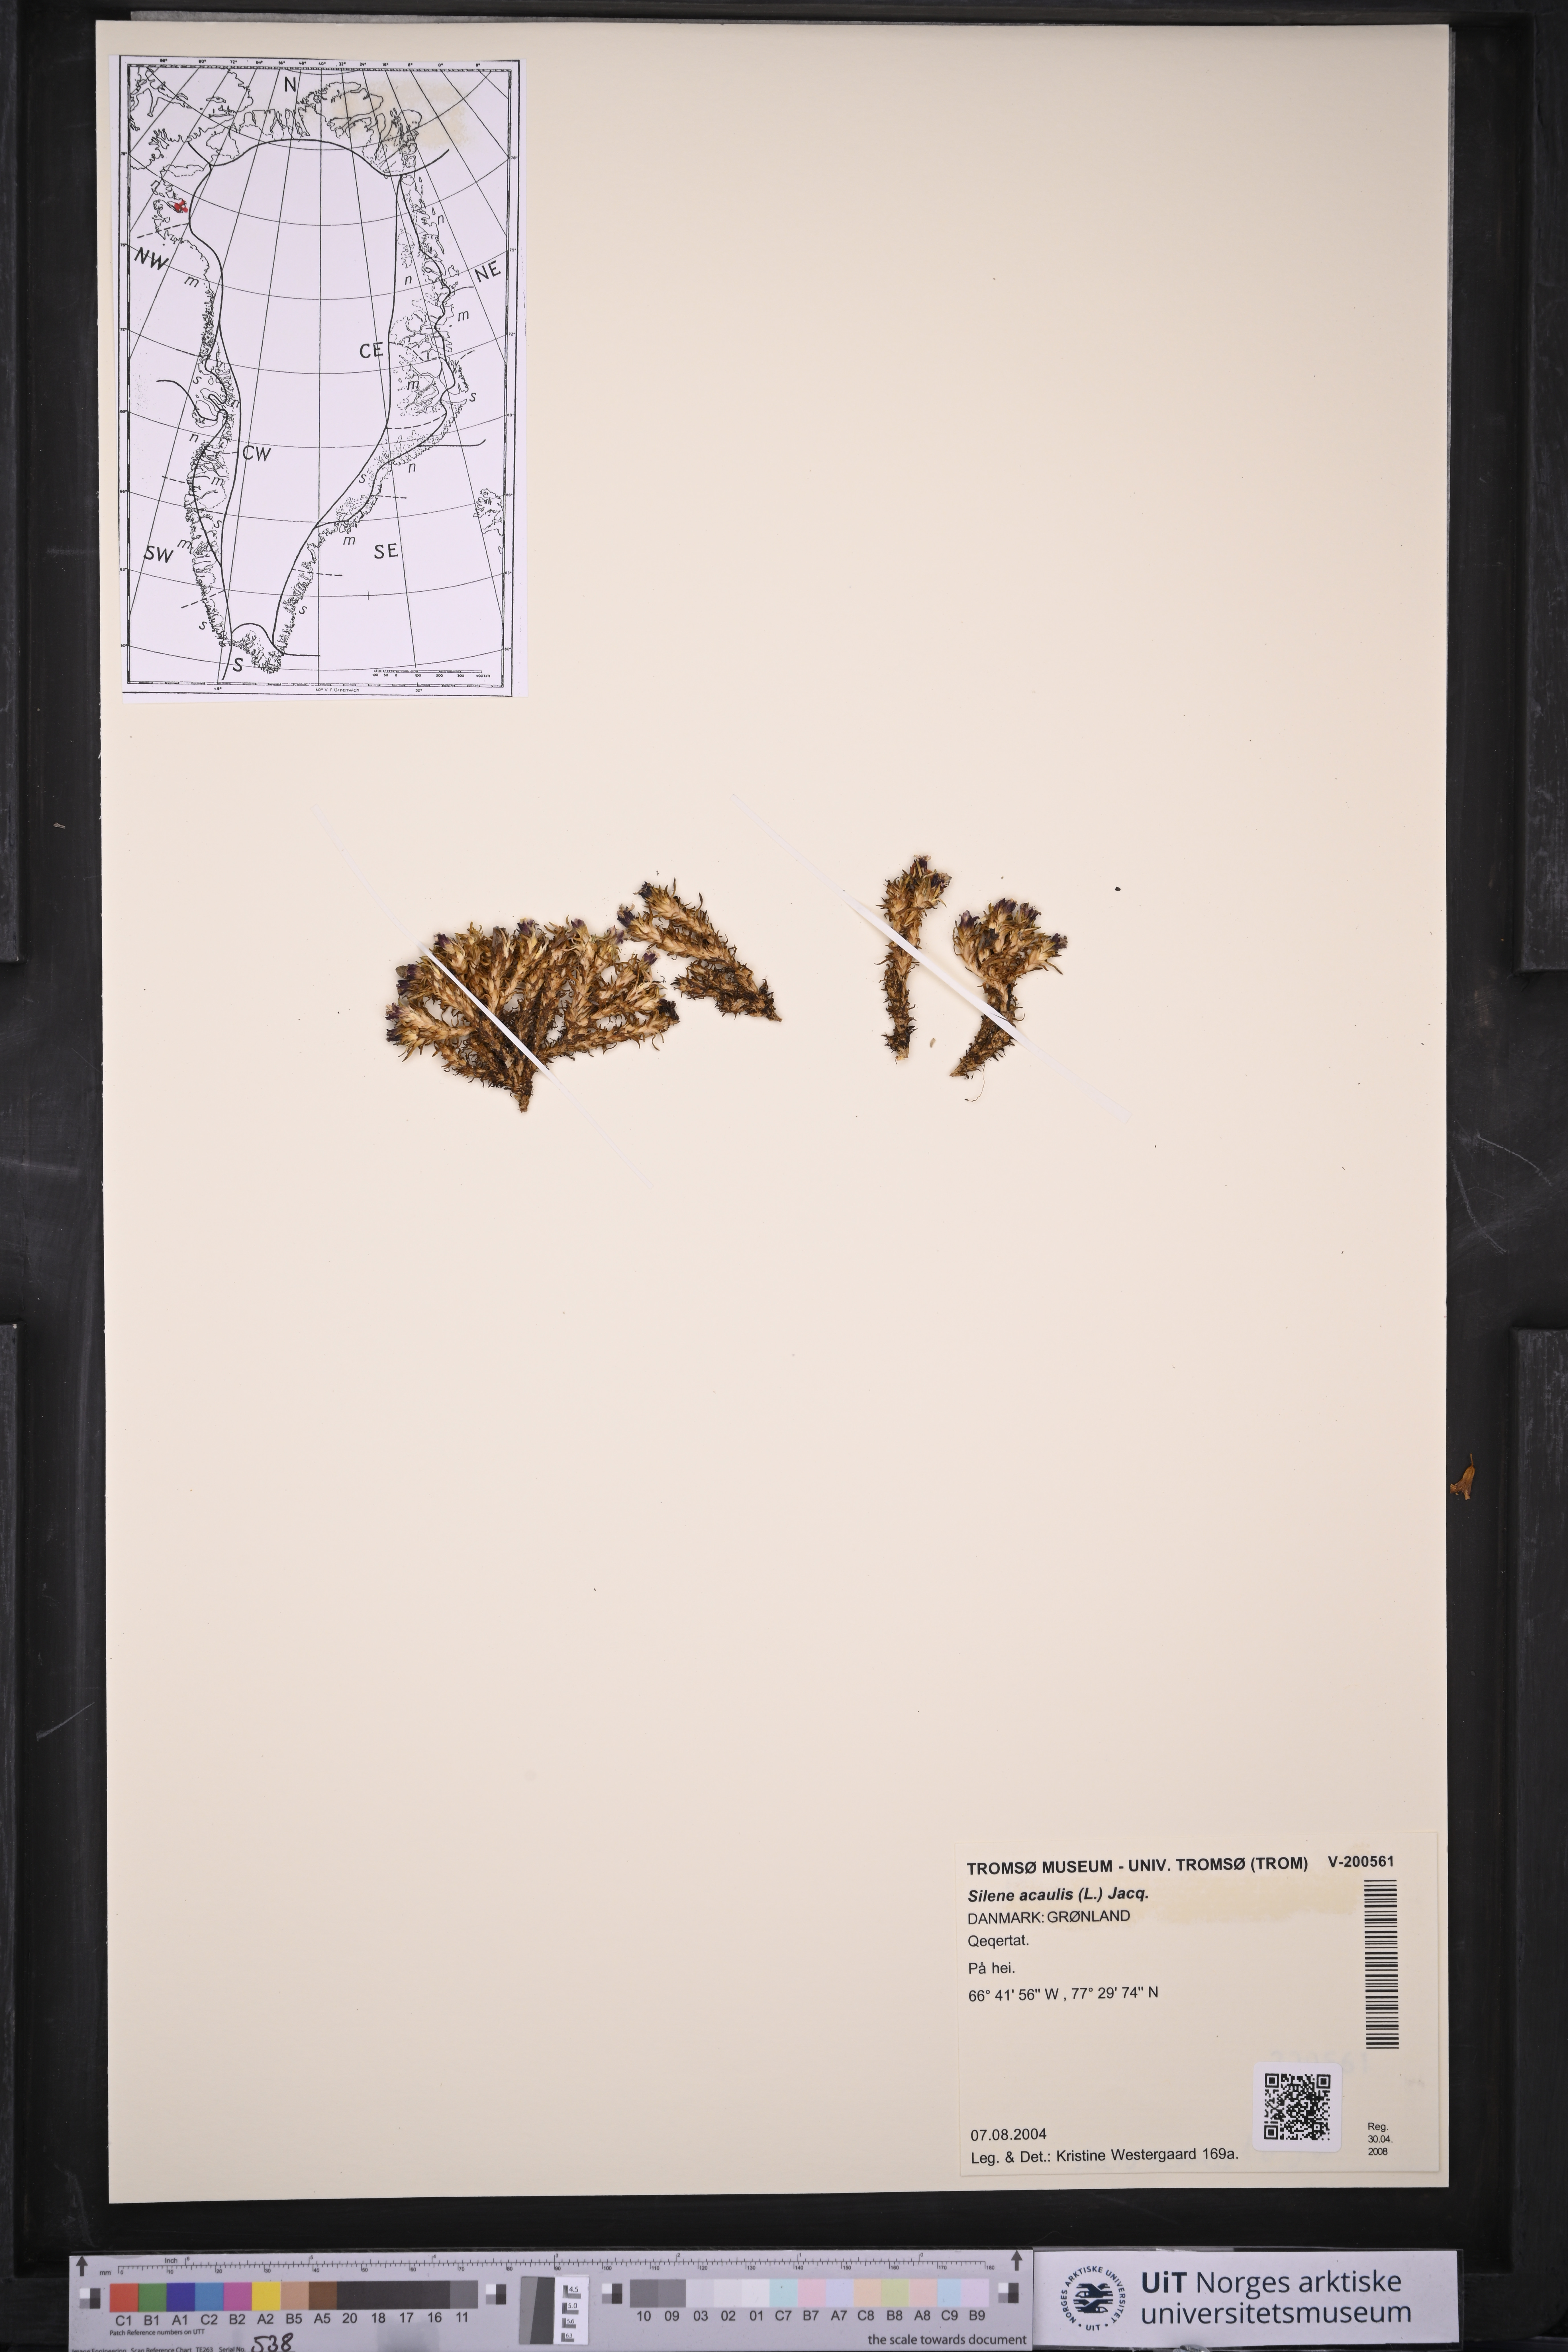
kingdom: Plantae
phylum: Tracheophyta
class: Magnoliopsida
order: Caryophyllales
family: Caryophyllaceae
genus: Silene
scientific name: Silene acaulis
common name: Moss campion
